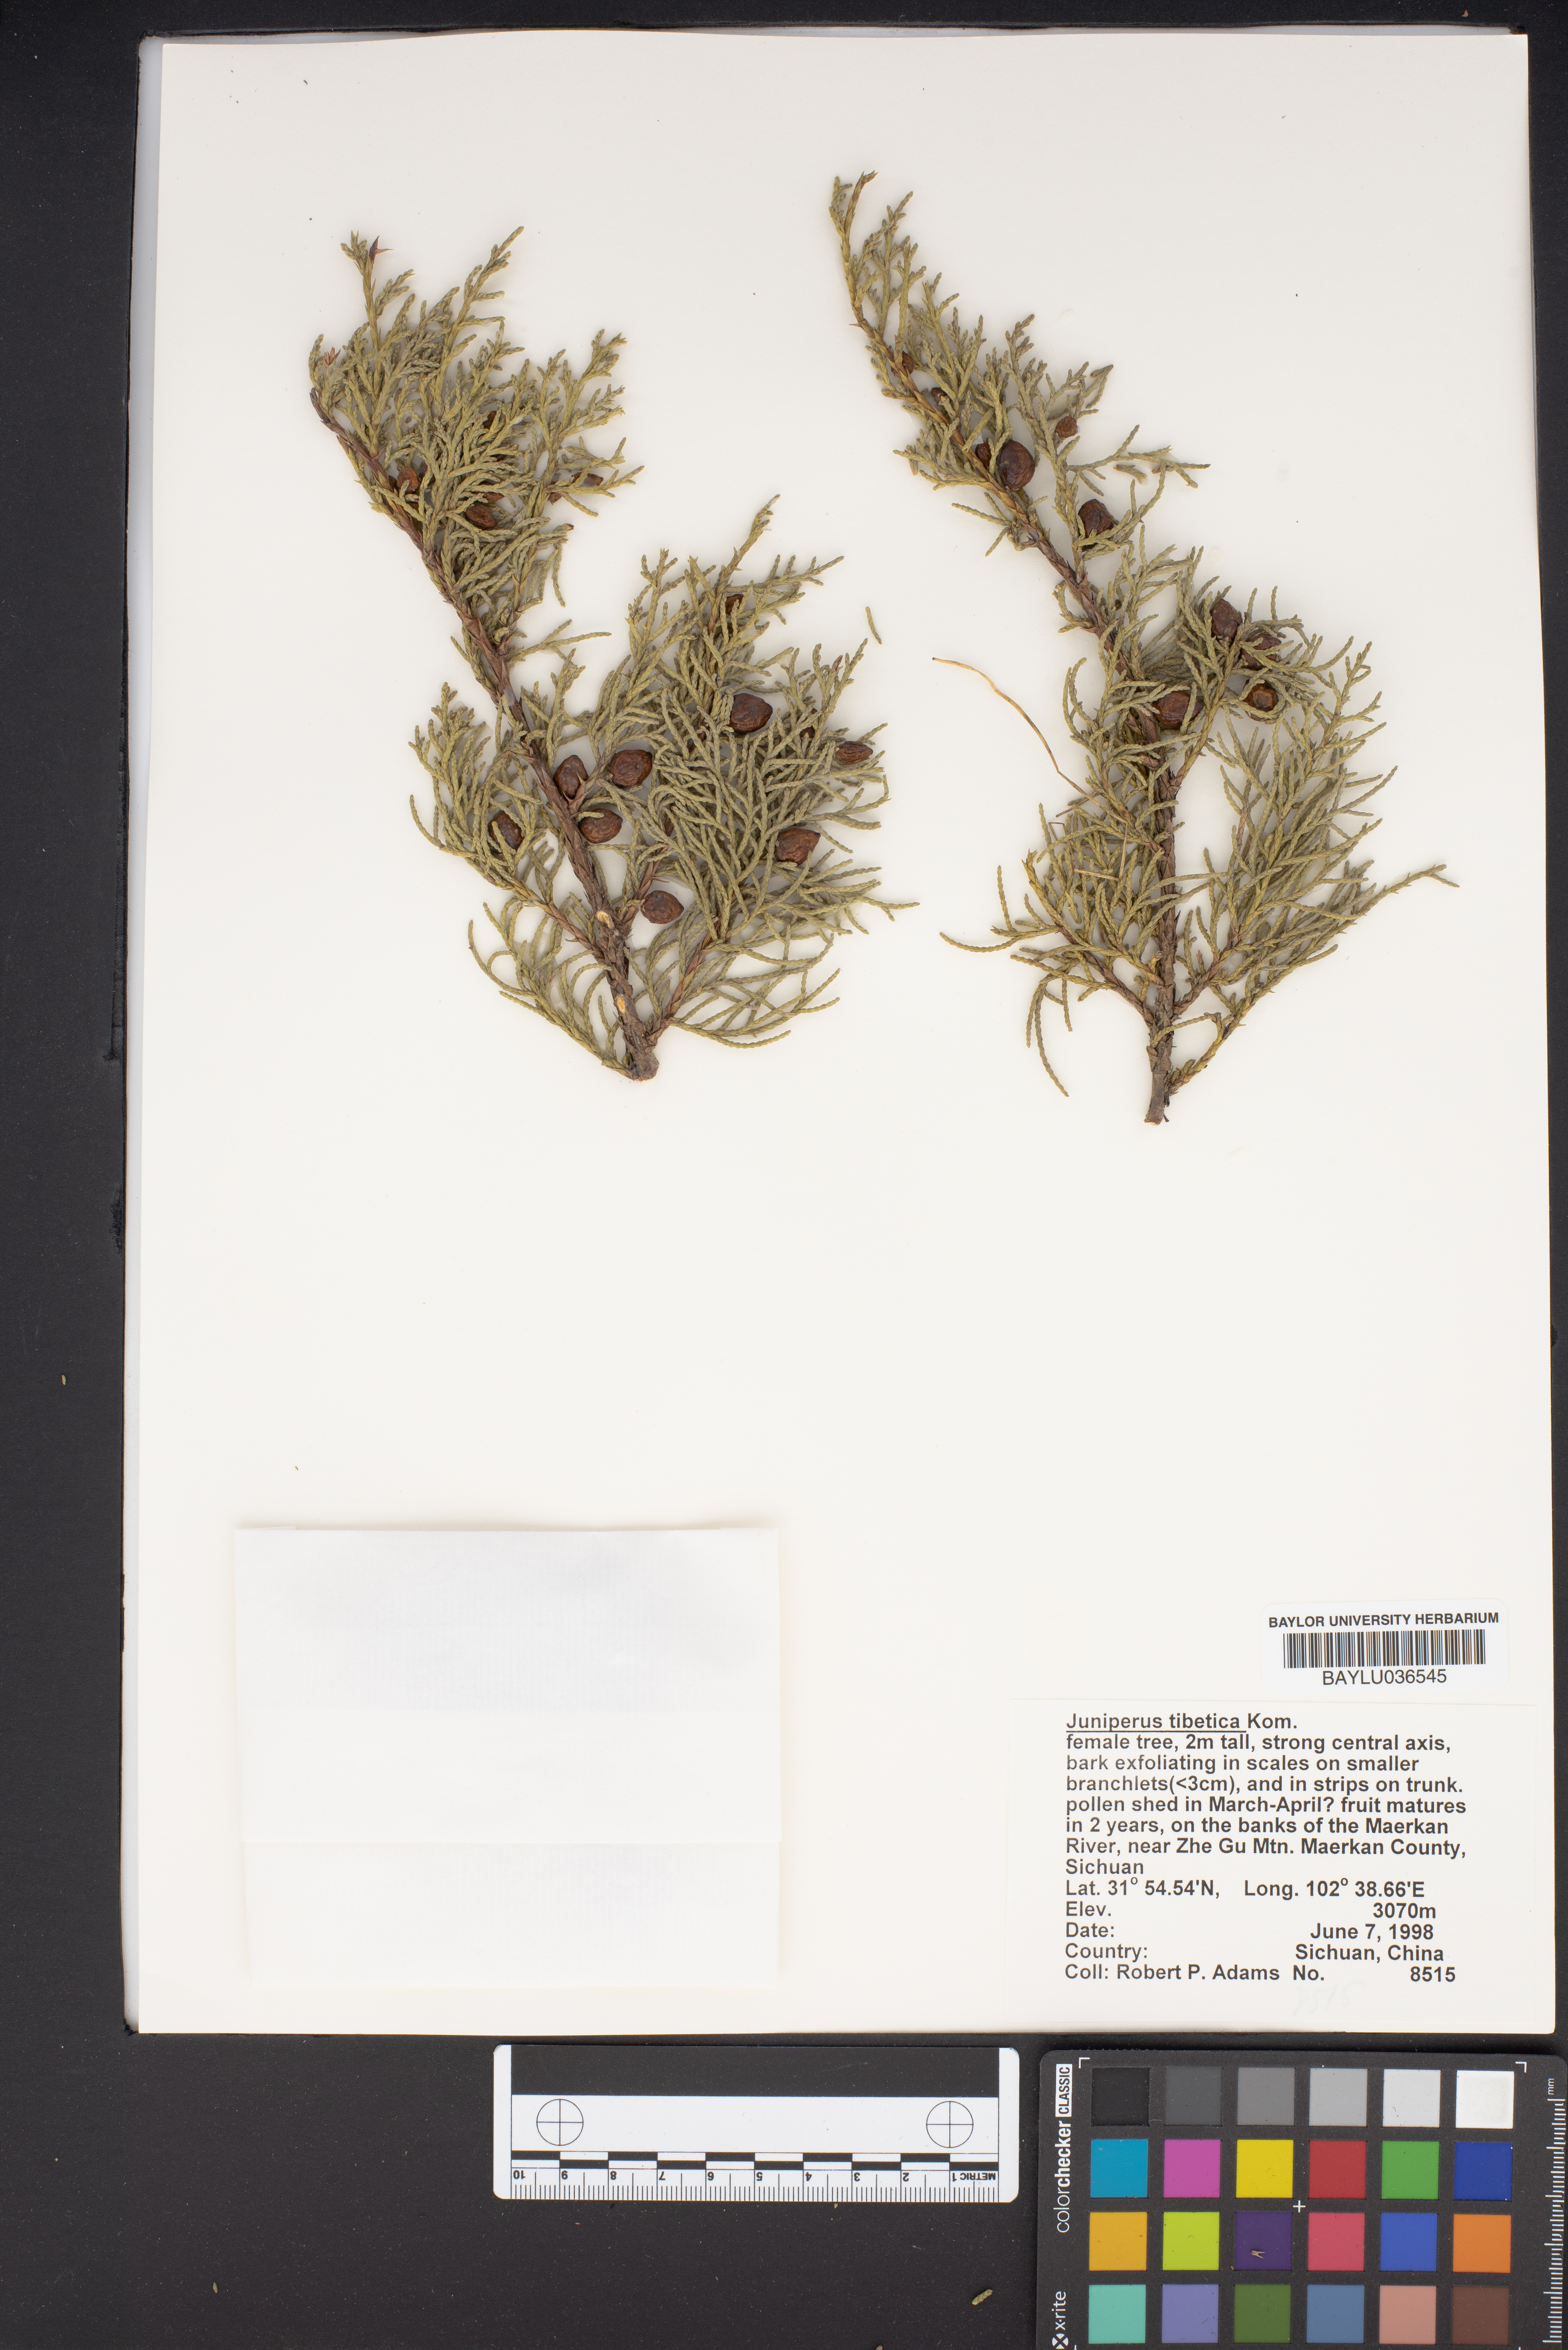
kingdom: Plantae
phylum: Tracheophyta
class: Pinopsida
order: Pinales
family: Cupressaceae
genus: Juniperus
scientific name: Juniperus tibetica
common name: Tibetan juniper
